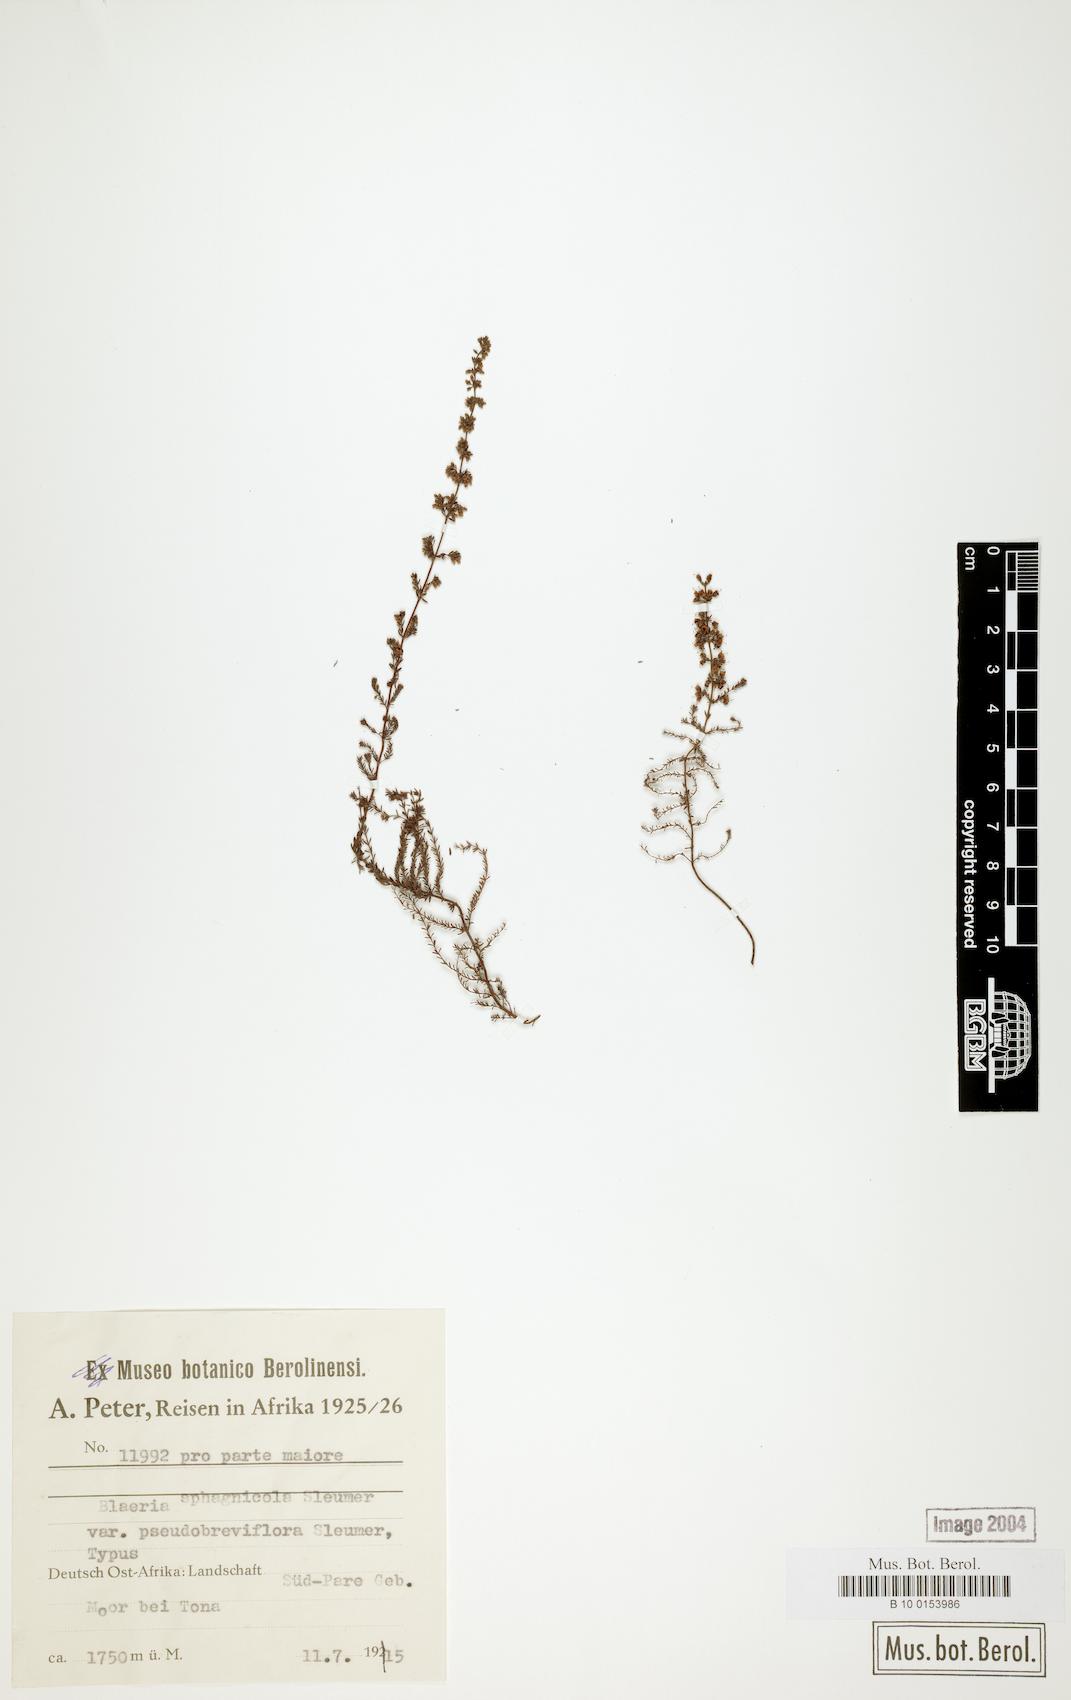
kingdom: Plantae
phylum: Tracheophyta
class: Magnoliopsida
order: Ericales
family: Ericaceae
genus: Erica
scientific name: Erica silvatica
